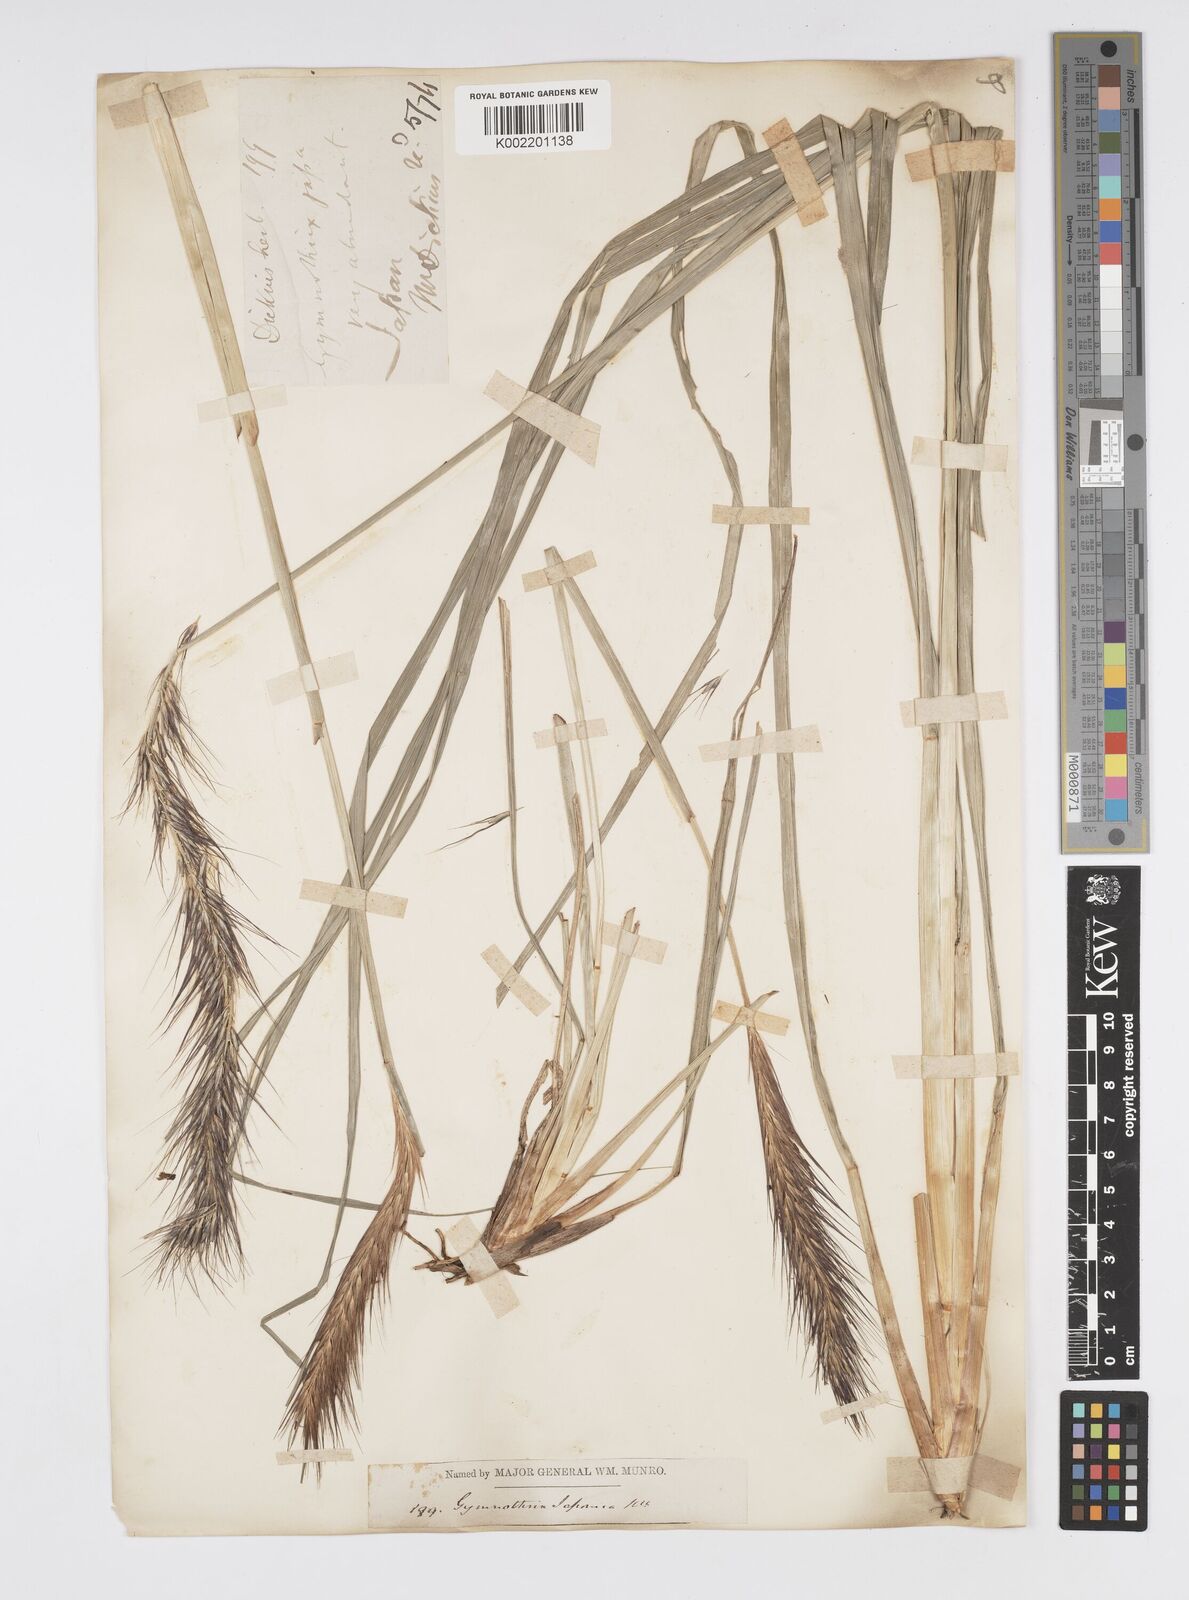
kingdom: Plantae
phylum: Tracheophyta
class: Liliopsida
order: Poales
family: Poaceae
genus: Cenchrus
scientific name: Cenchrus alopecuroides
